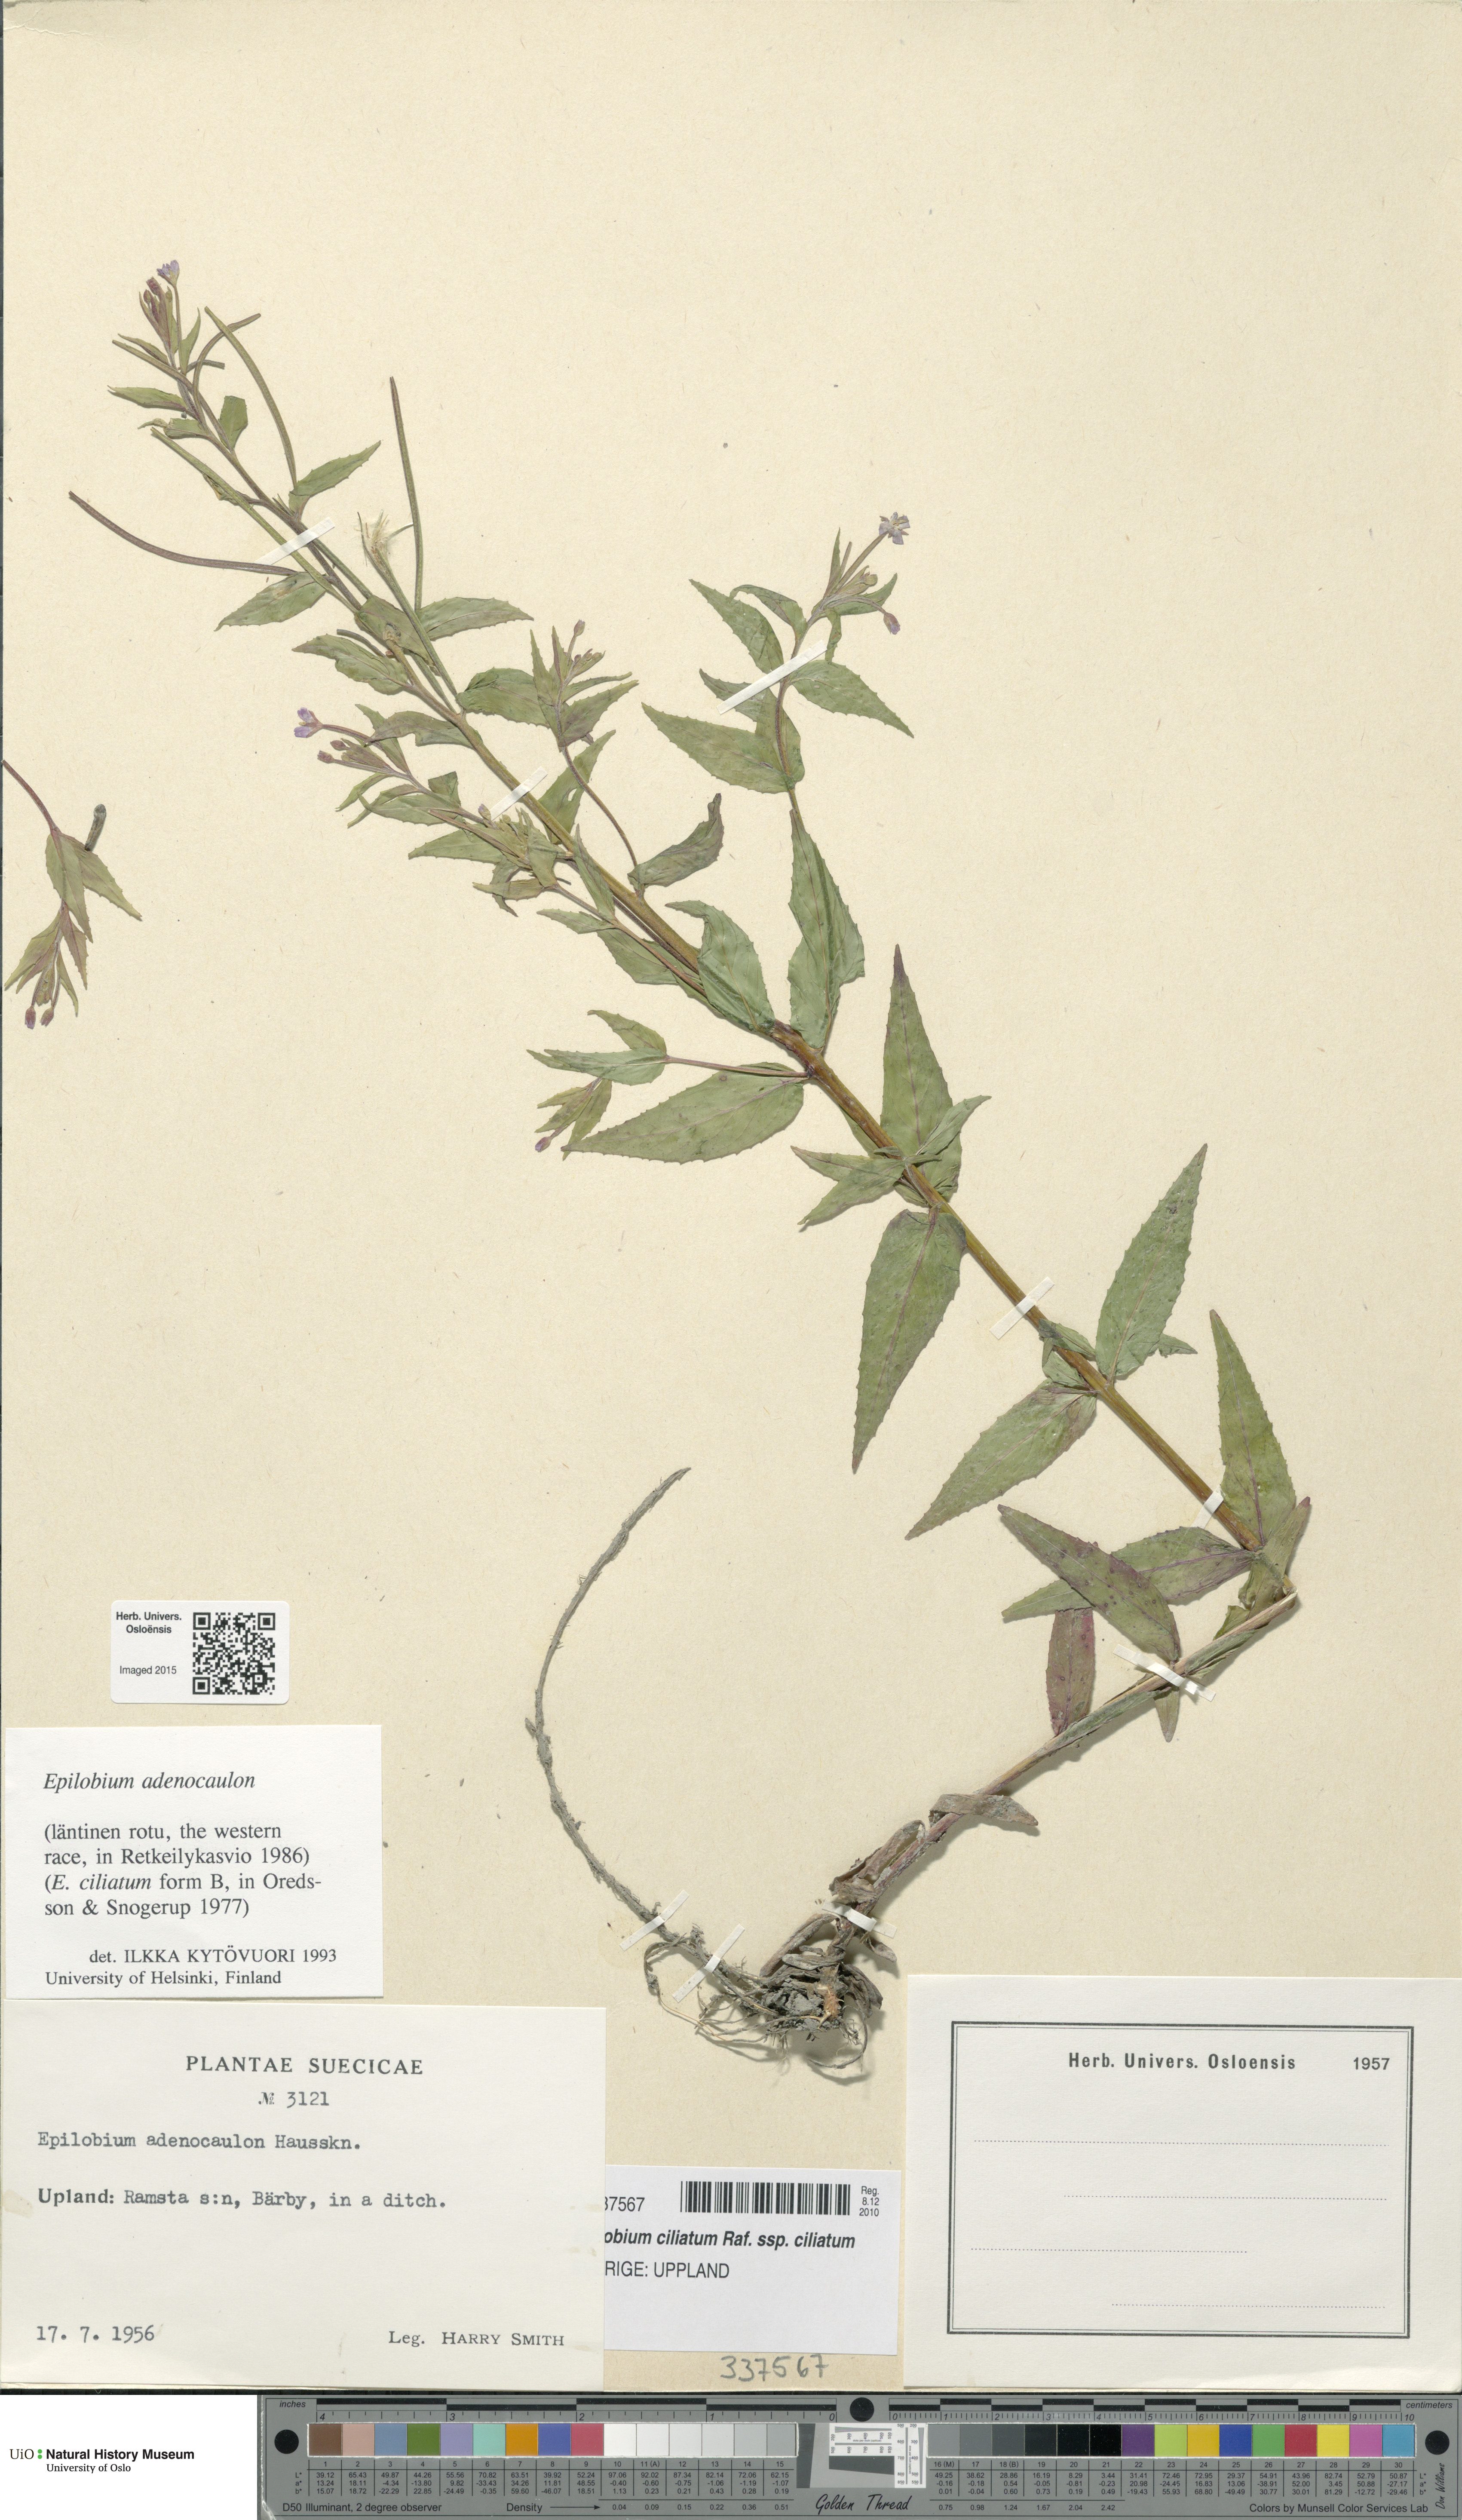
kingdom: Plantae
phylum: Tracheophyta
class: Magnoliopsida
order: Myrtales
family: Onagraceae
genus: Epilobium
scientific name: Epilobium ciliatum
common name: American willowherb
